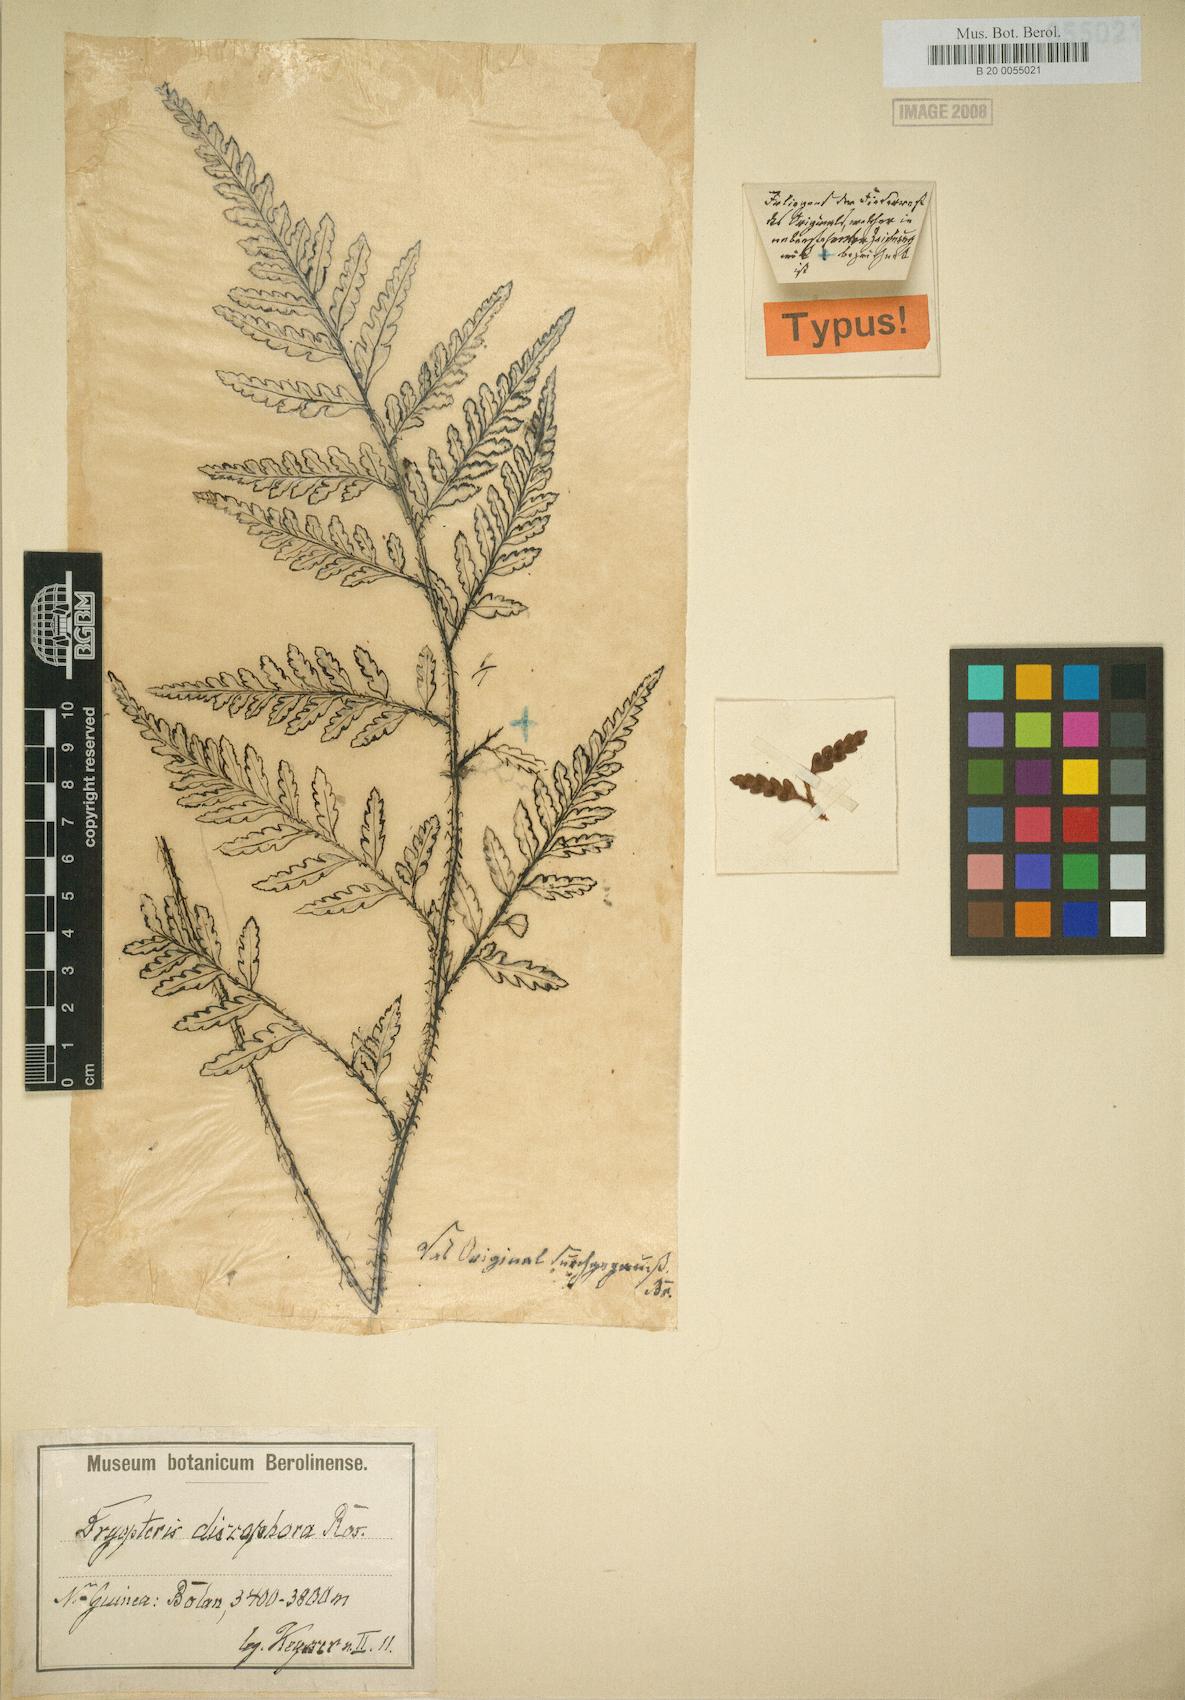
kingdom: Plantae
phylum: Tracheophyta
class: Polypodiopsida
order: Polypodiales
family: Dryopteridaceae
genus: Rumohra
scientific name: Rumohra adiantiformis
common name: Leather fern
